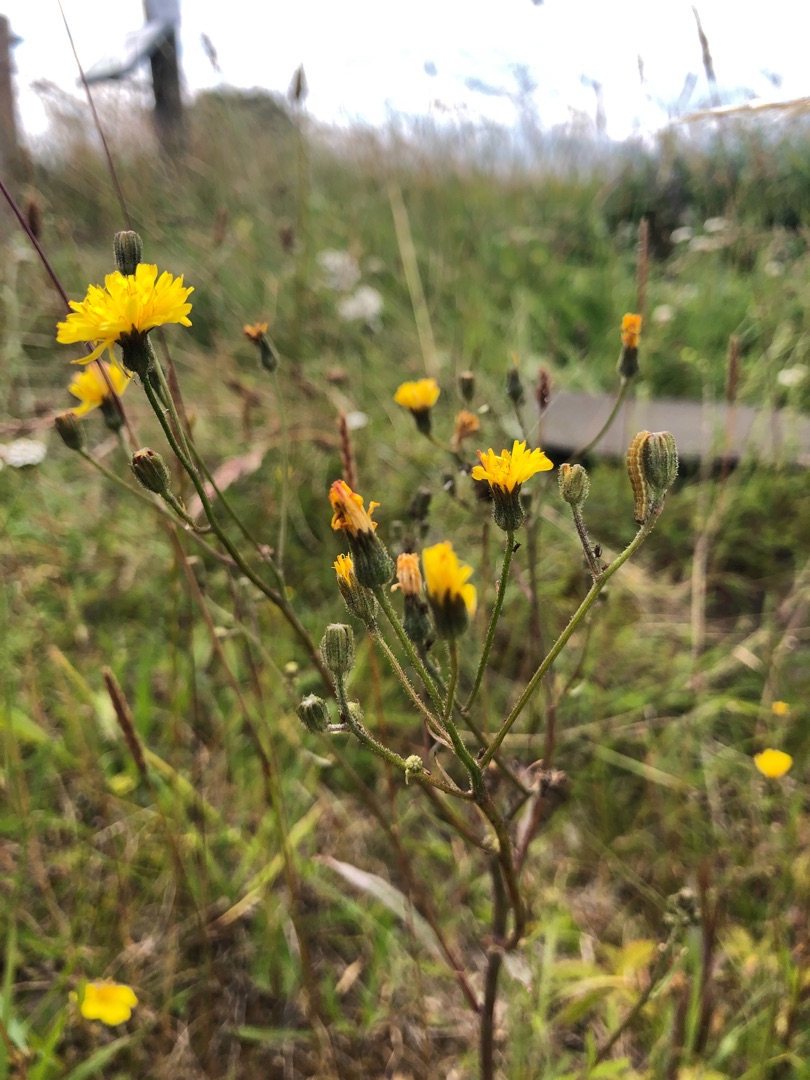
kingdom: Plantae
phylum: Tracheophyta
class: Magnoliopsida
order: Asterales
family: Asteraceae
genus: Crepis
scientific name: Crepis capillaris
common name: Grøn høgeskæg
